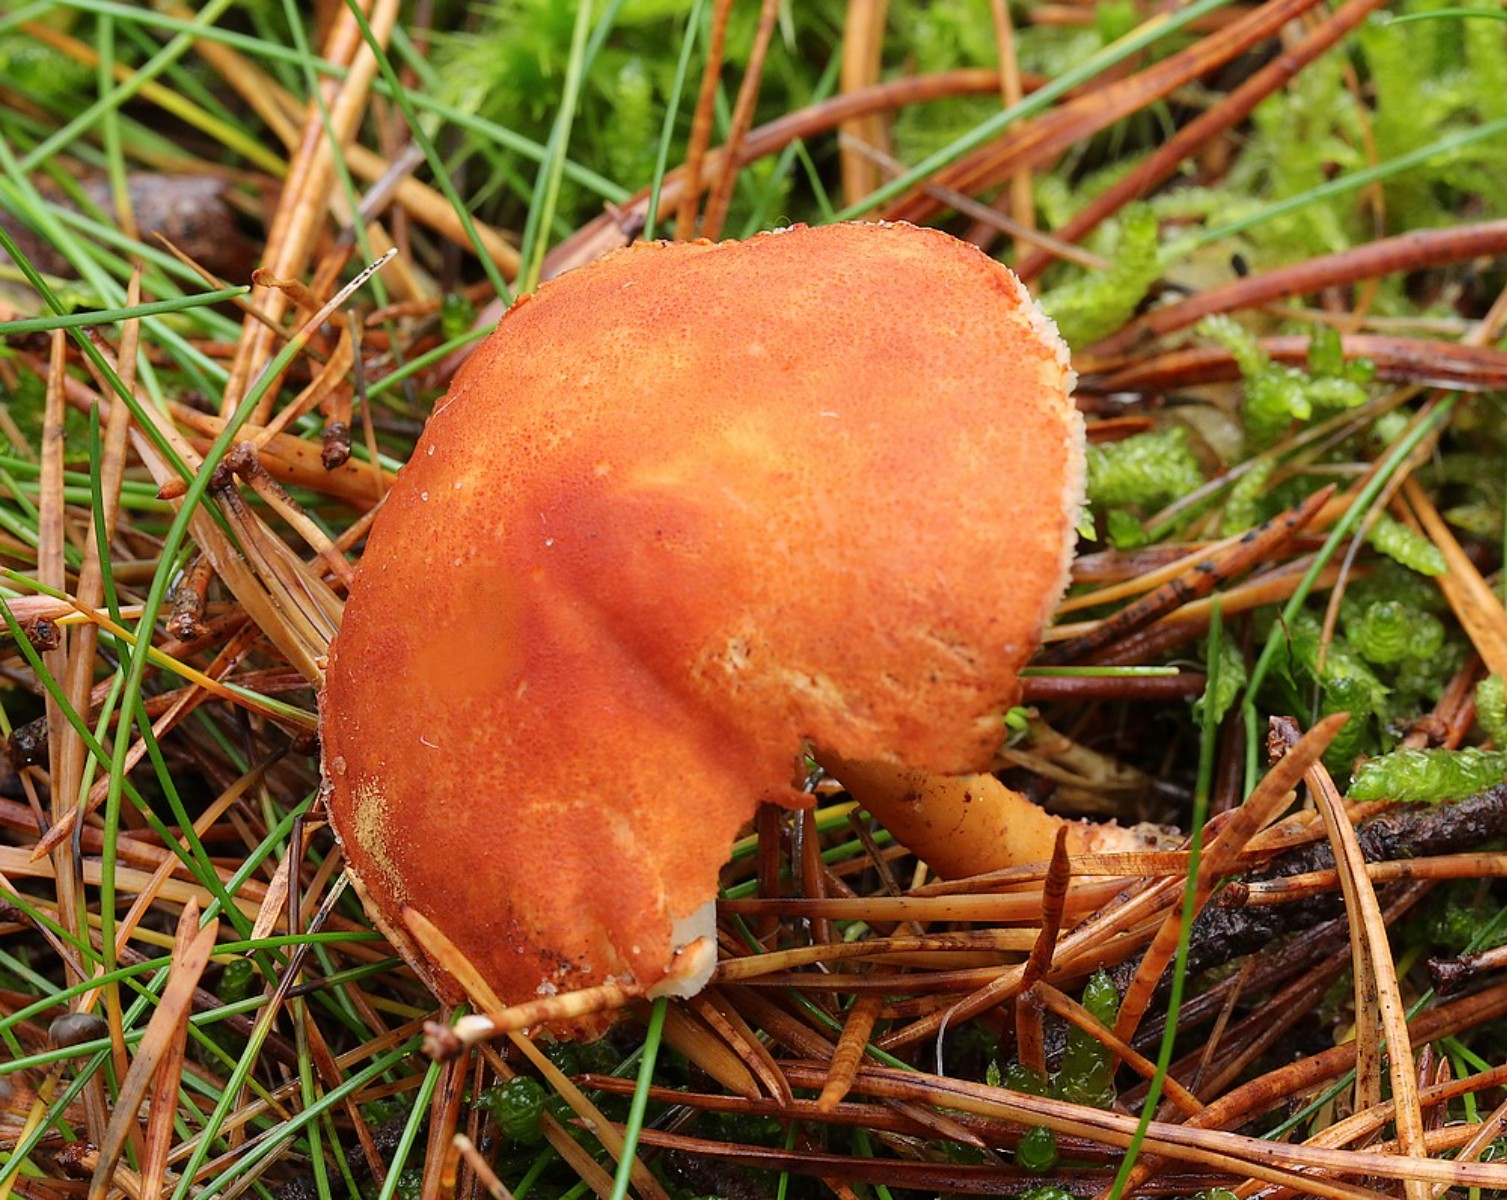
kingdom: Fungi
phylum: Basidiomycota
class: Agaricomycetes
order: Agaricales
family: Agaricaceae
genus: Cystodermella
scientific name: Cystodermella cinnabarina
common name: cinnober-grynhat
